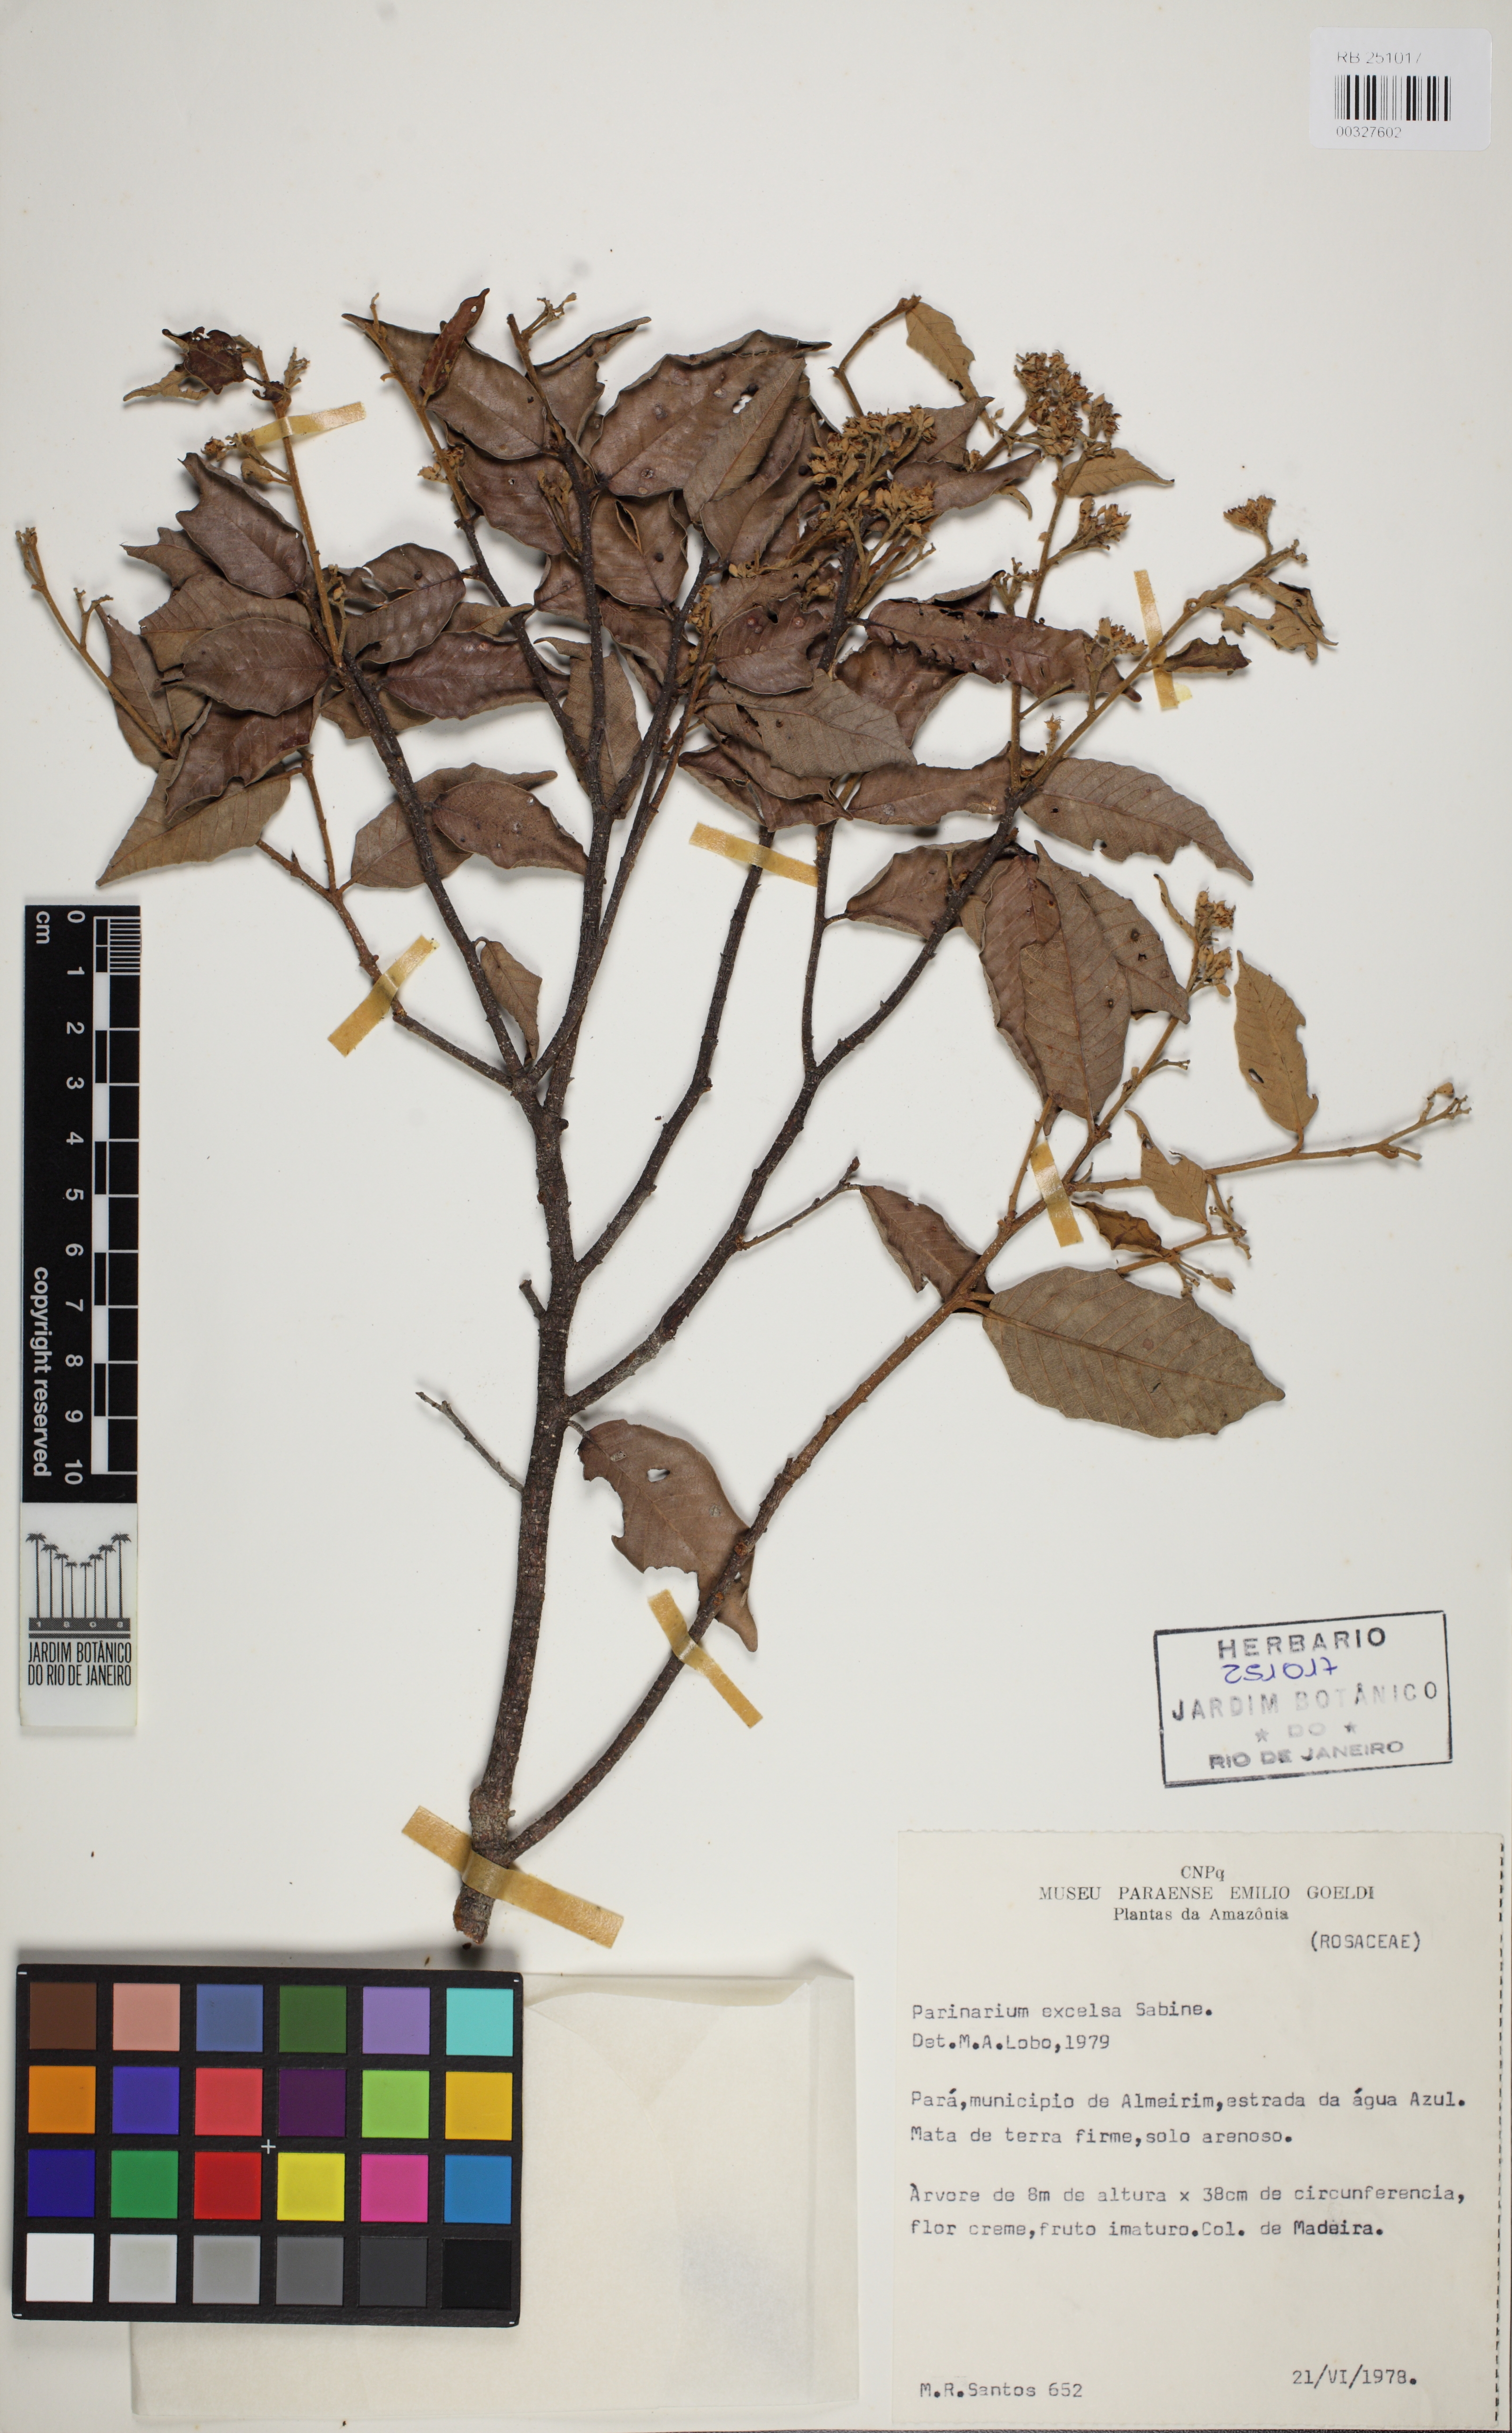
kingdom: Plantae
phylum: Tracheophyta
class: Magnoliopsida
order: Malpighiales
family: Chrysobalanaceae
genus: Parinari
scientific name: Parinari excelsa
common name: Guinea-plum
